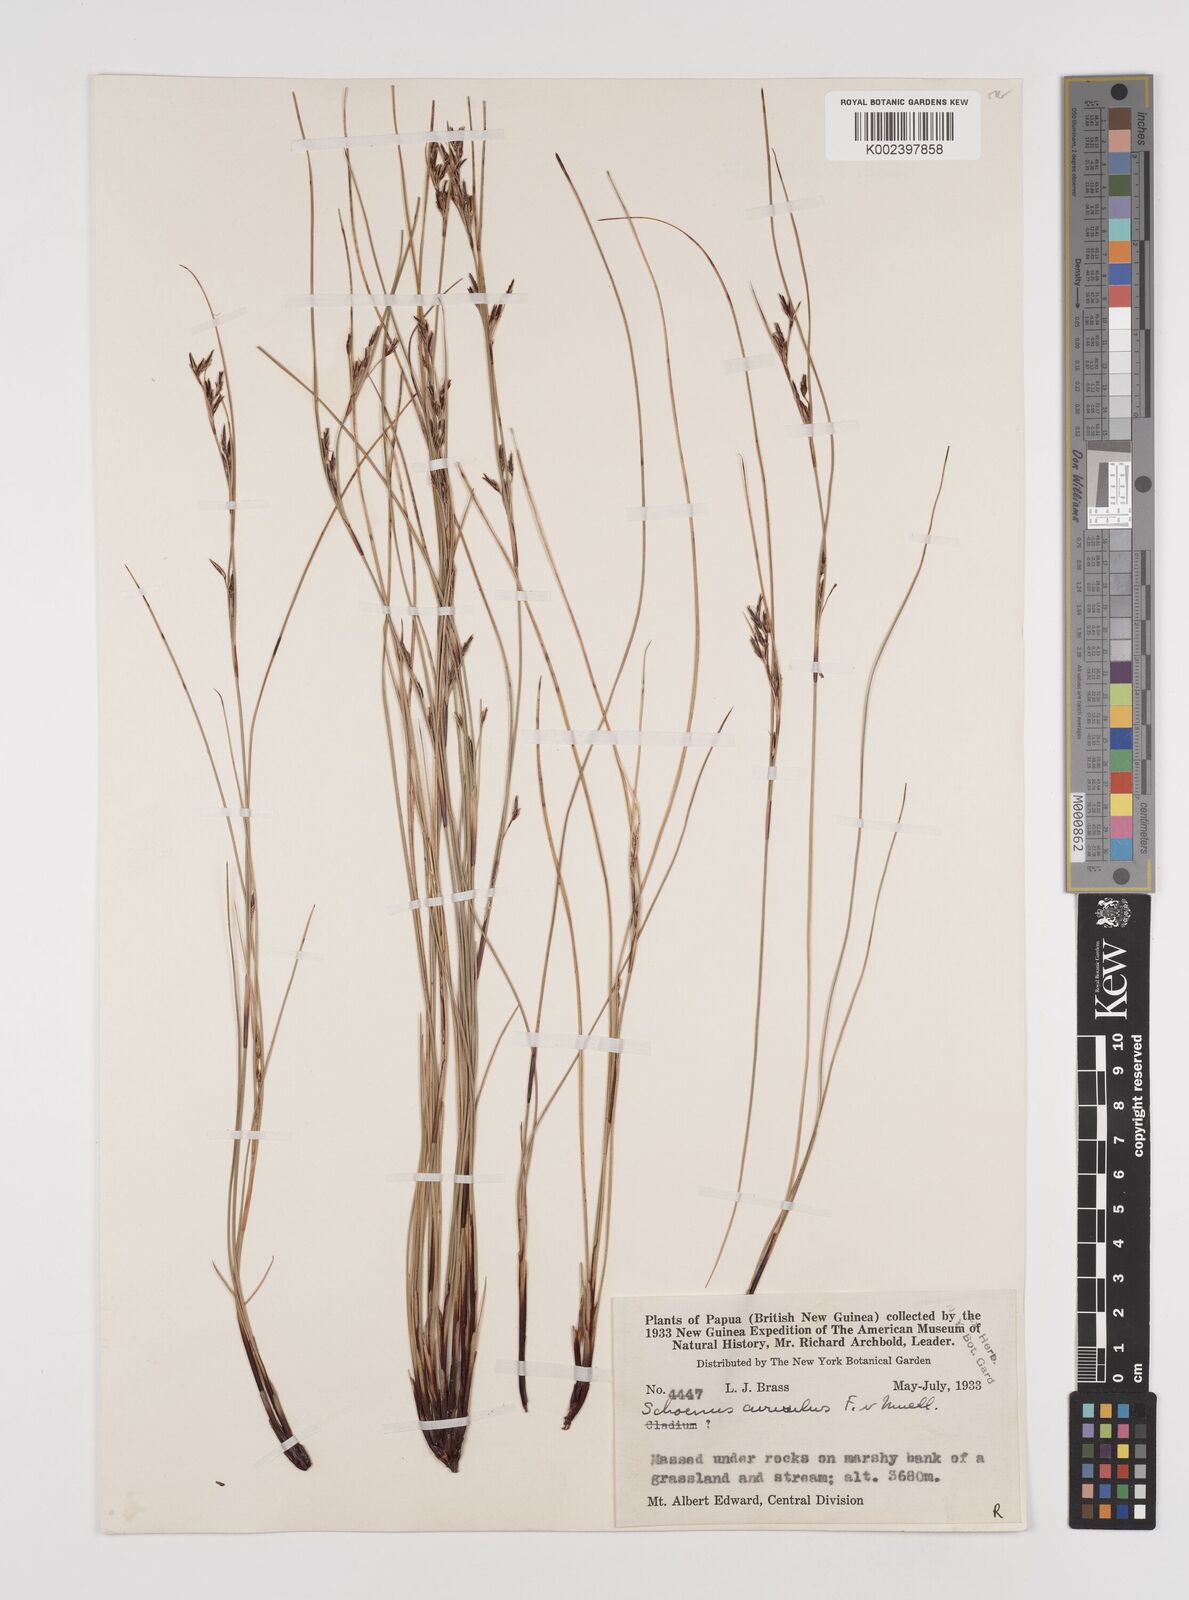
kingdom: Plantae
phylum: Tracheophyta
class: Liliopsida
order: Poales
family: Cyperaceae
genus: Schoenus
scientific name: Schoenus curvulus
